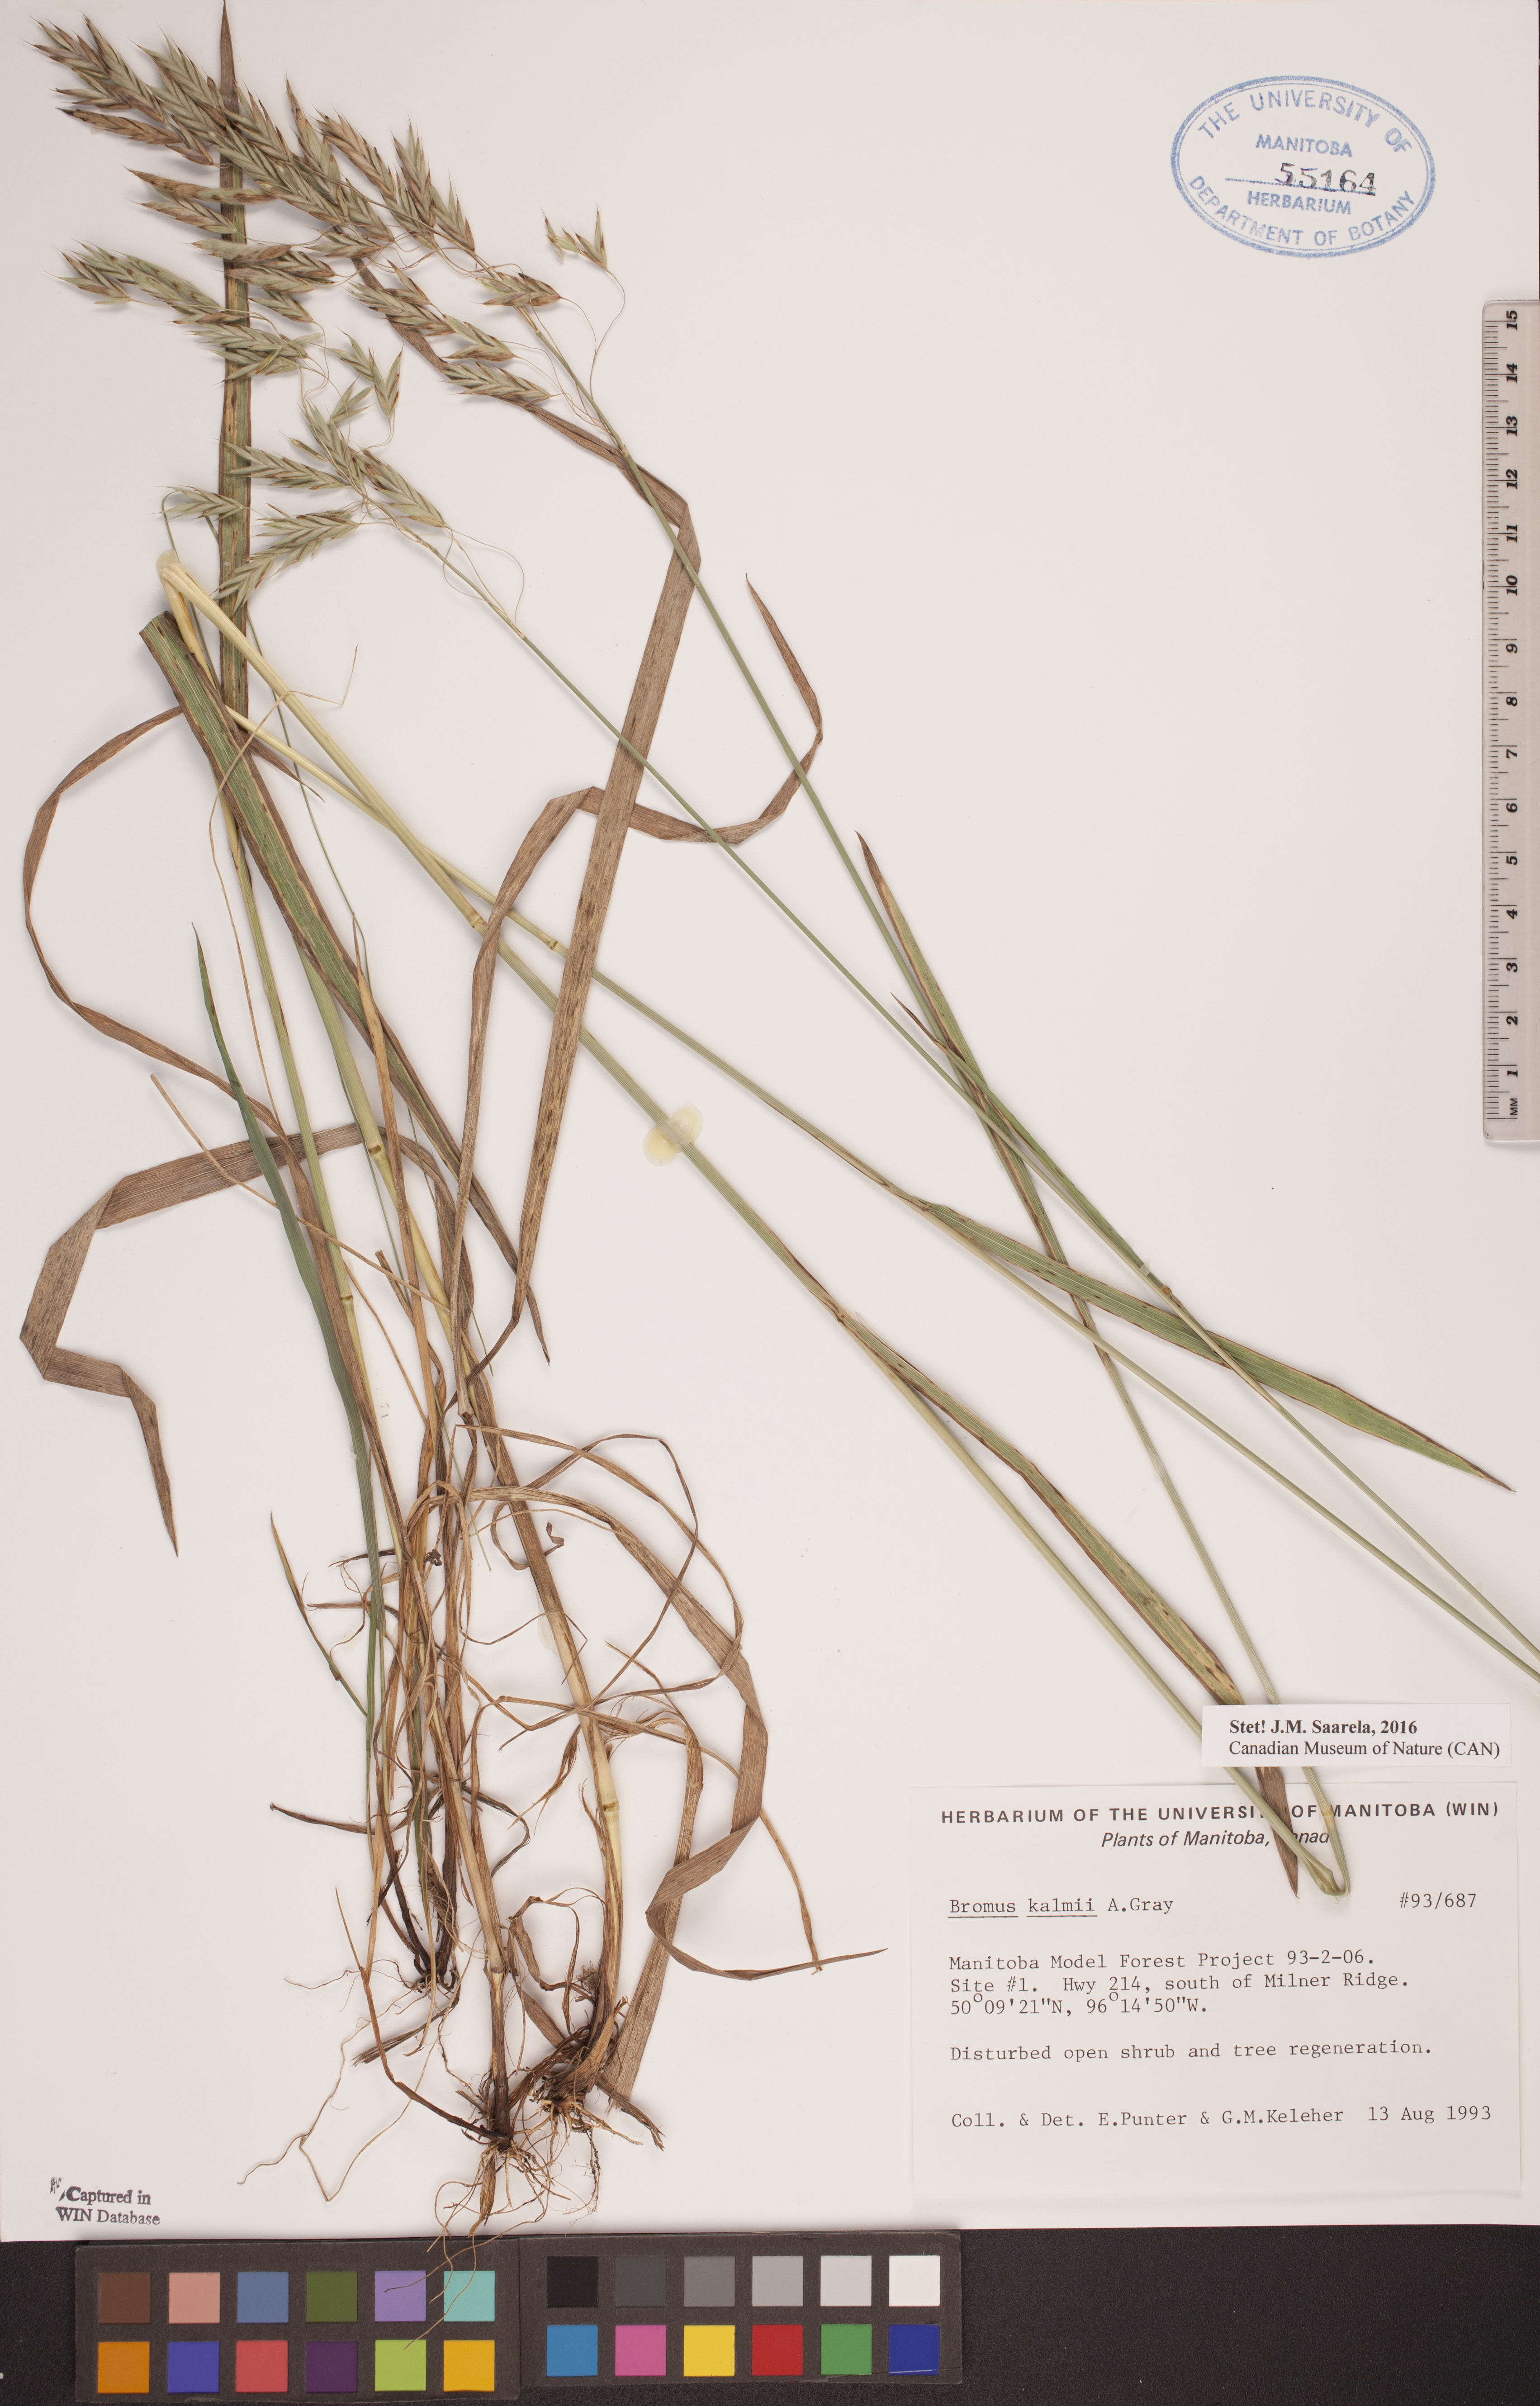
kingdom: Plantae
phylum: Tracheophyta
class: Liliopsida
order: Poales
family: Poaceae
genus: Bromus
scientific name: Bromus kalmii
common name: Kalm brome
